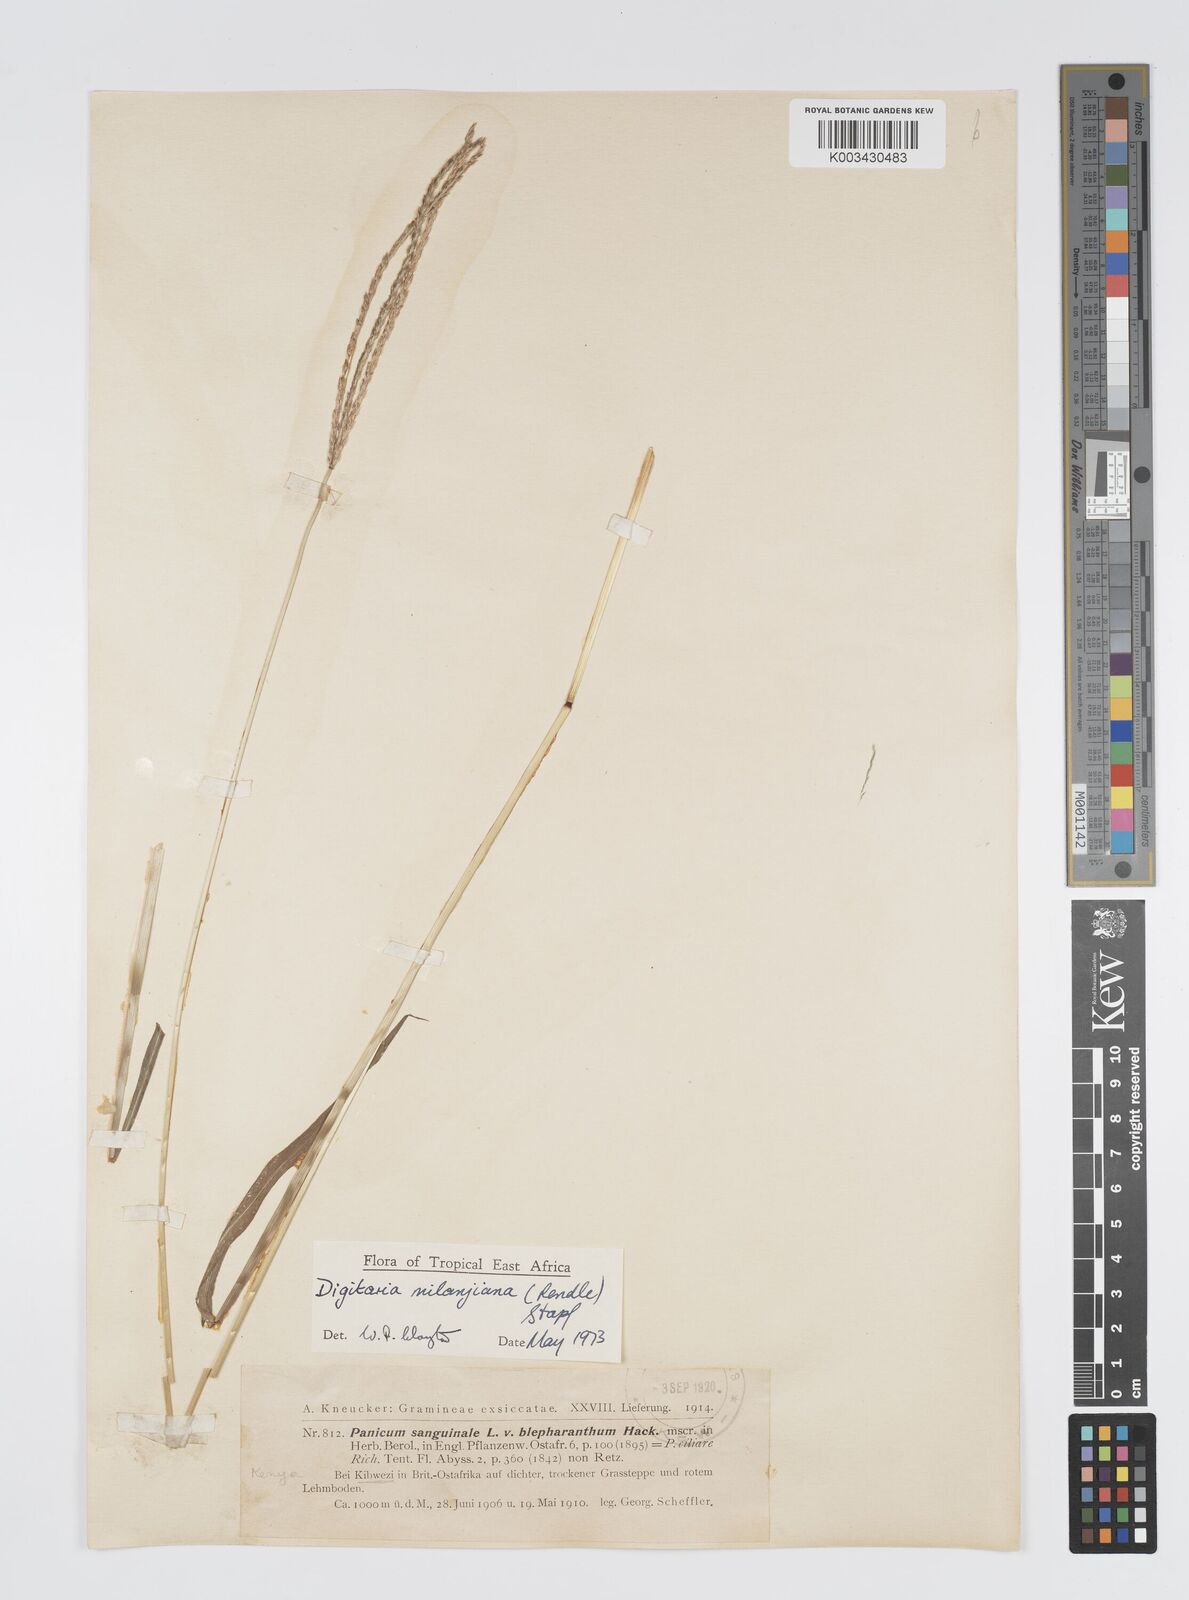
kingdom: Plantae
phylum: Tracheophyta
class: Liliopsida
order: Poales
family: Poaceae
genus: Digitaria
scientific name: Digitaria milanjiana
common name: Madagascar crabgrass
